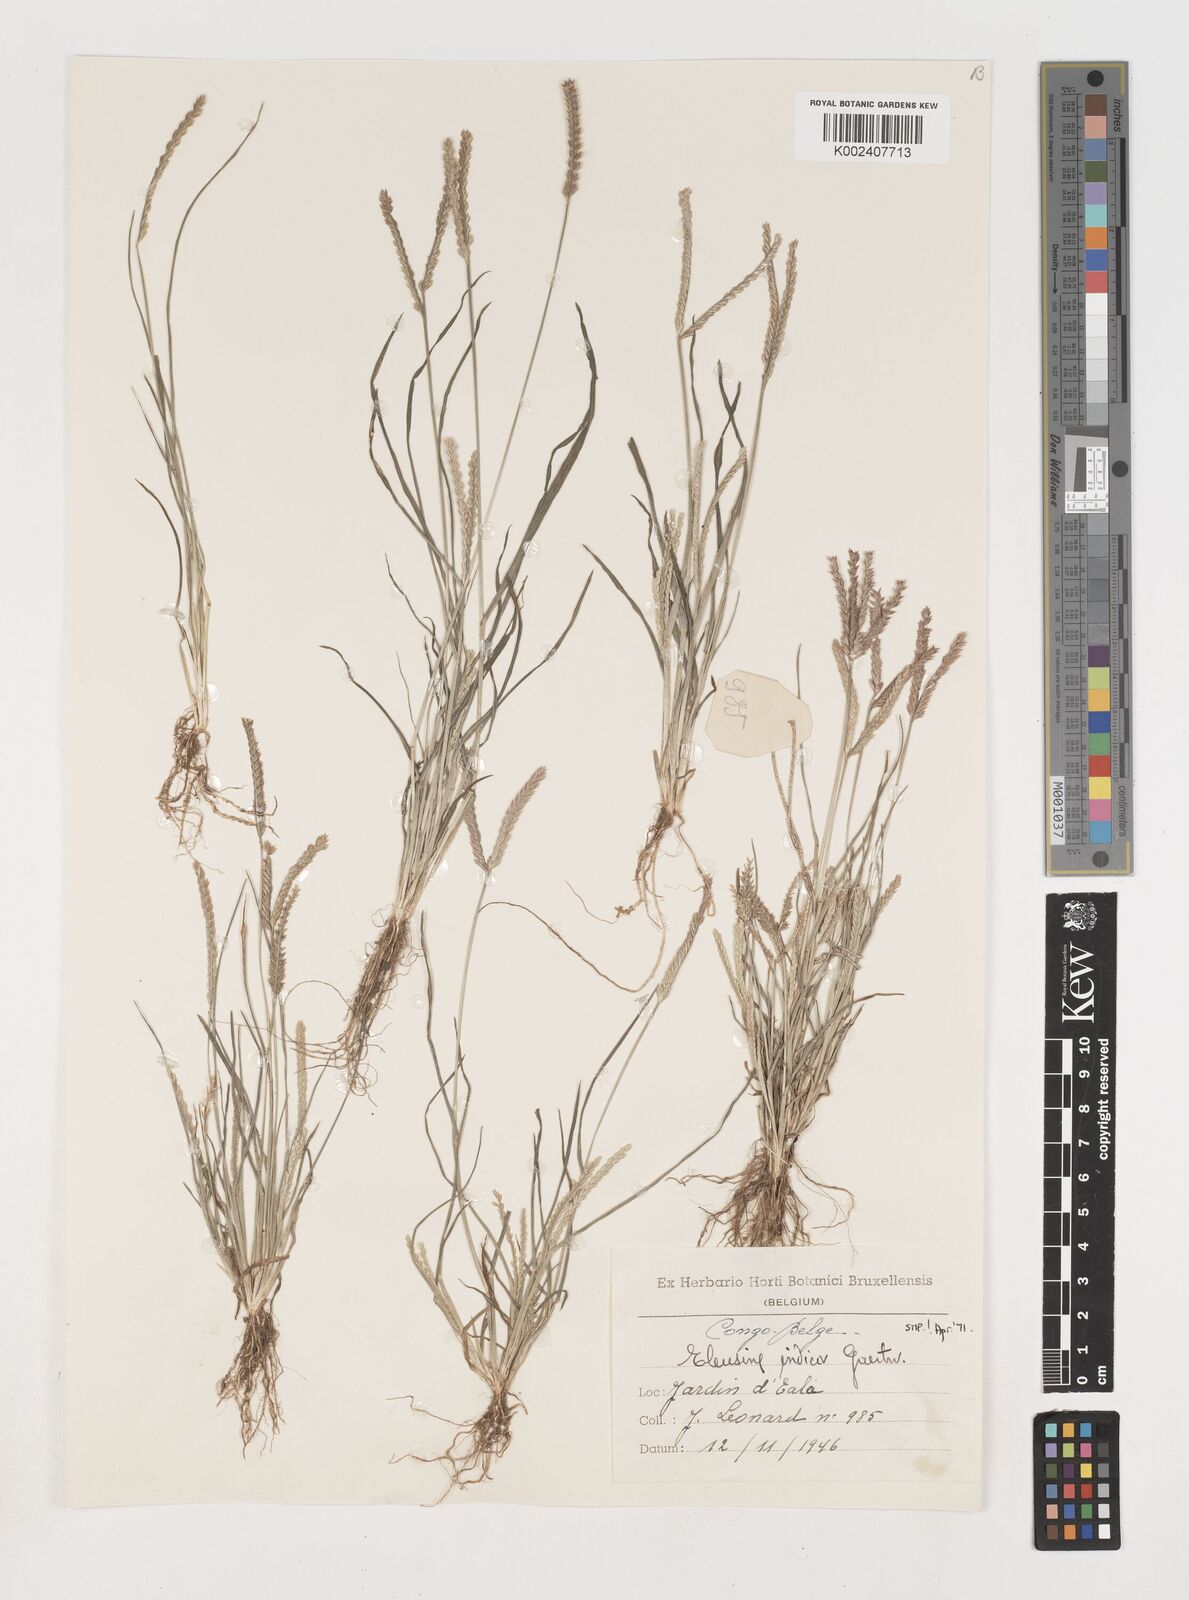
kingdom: Plantae
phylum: Tracheophyta
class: Liliopsida
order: Poales
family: Poaceae
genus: Eleusine
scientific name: Eleusine indica
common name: Yard-grass
